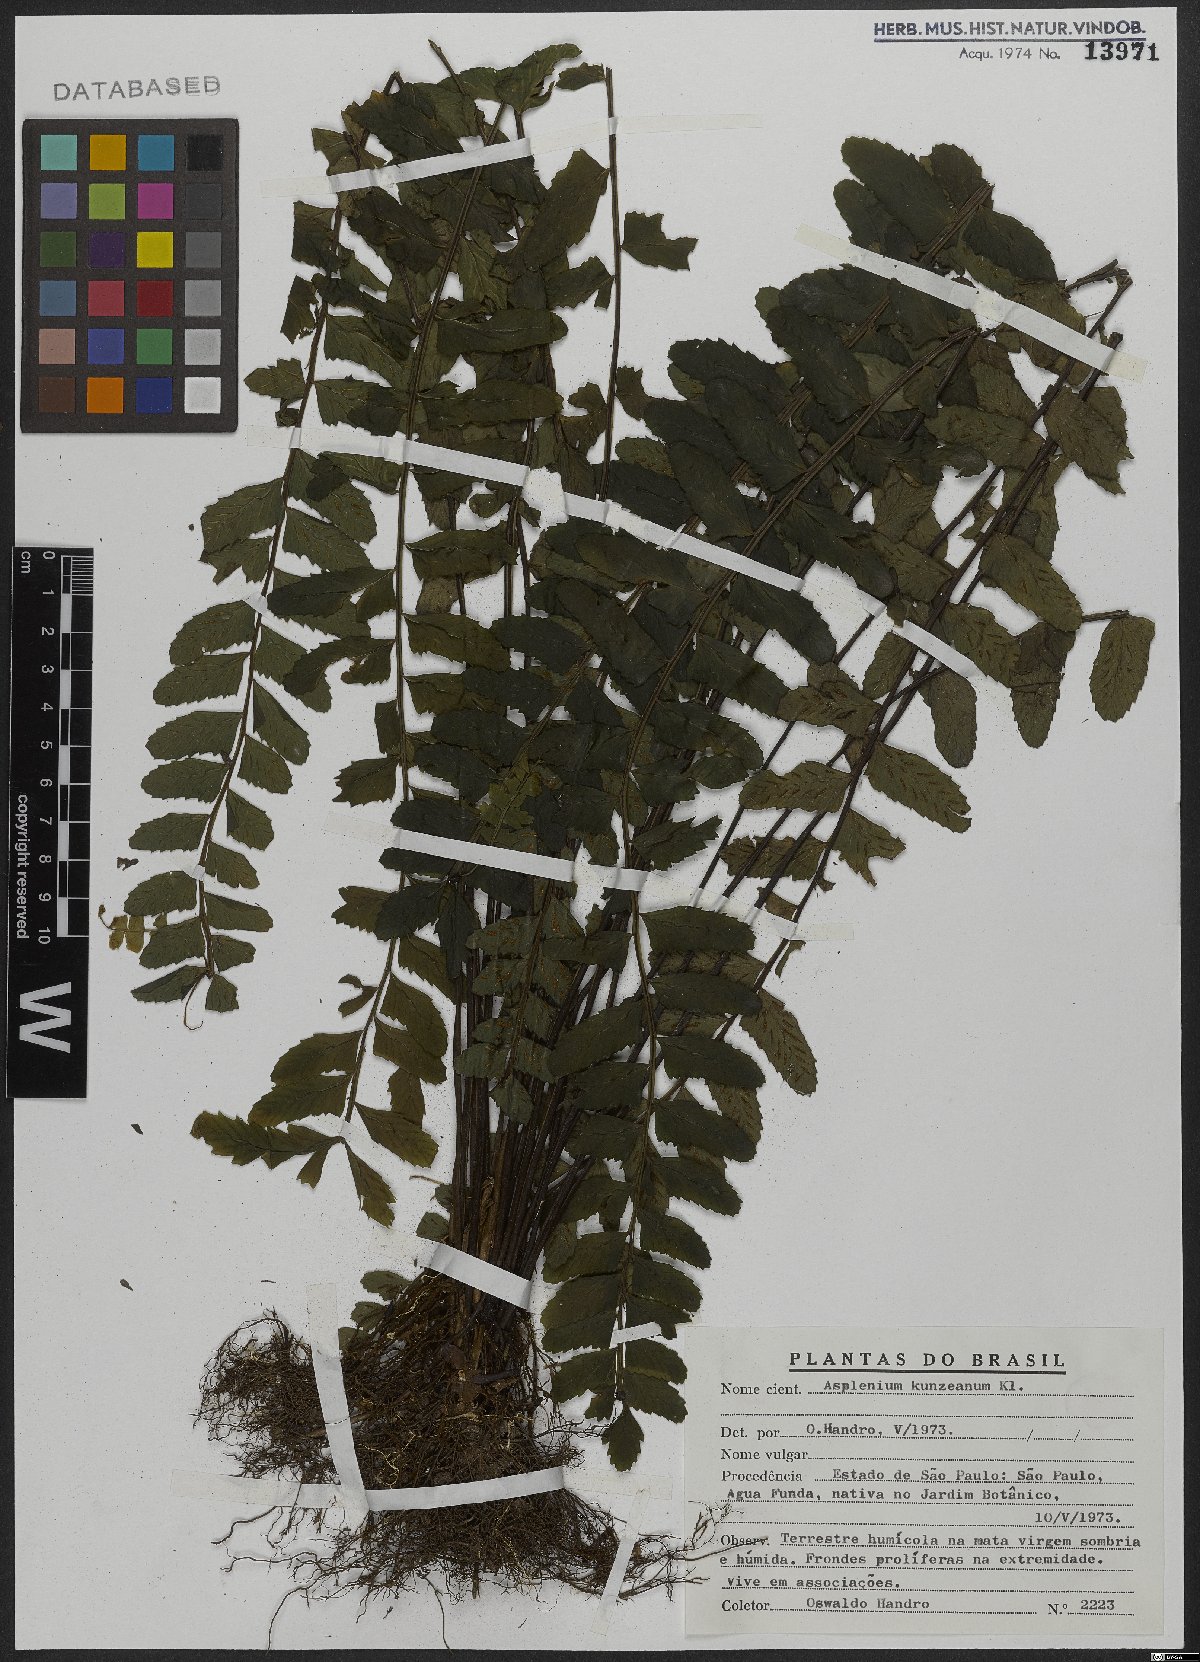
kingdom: Plantae
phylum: Tracheophyta
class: Polypodiopsida
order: Polypodiales
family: Aspleniaceae
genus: Asplenium
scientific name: Asplenium kunzeanum
